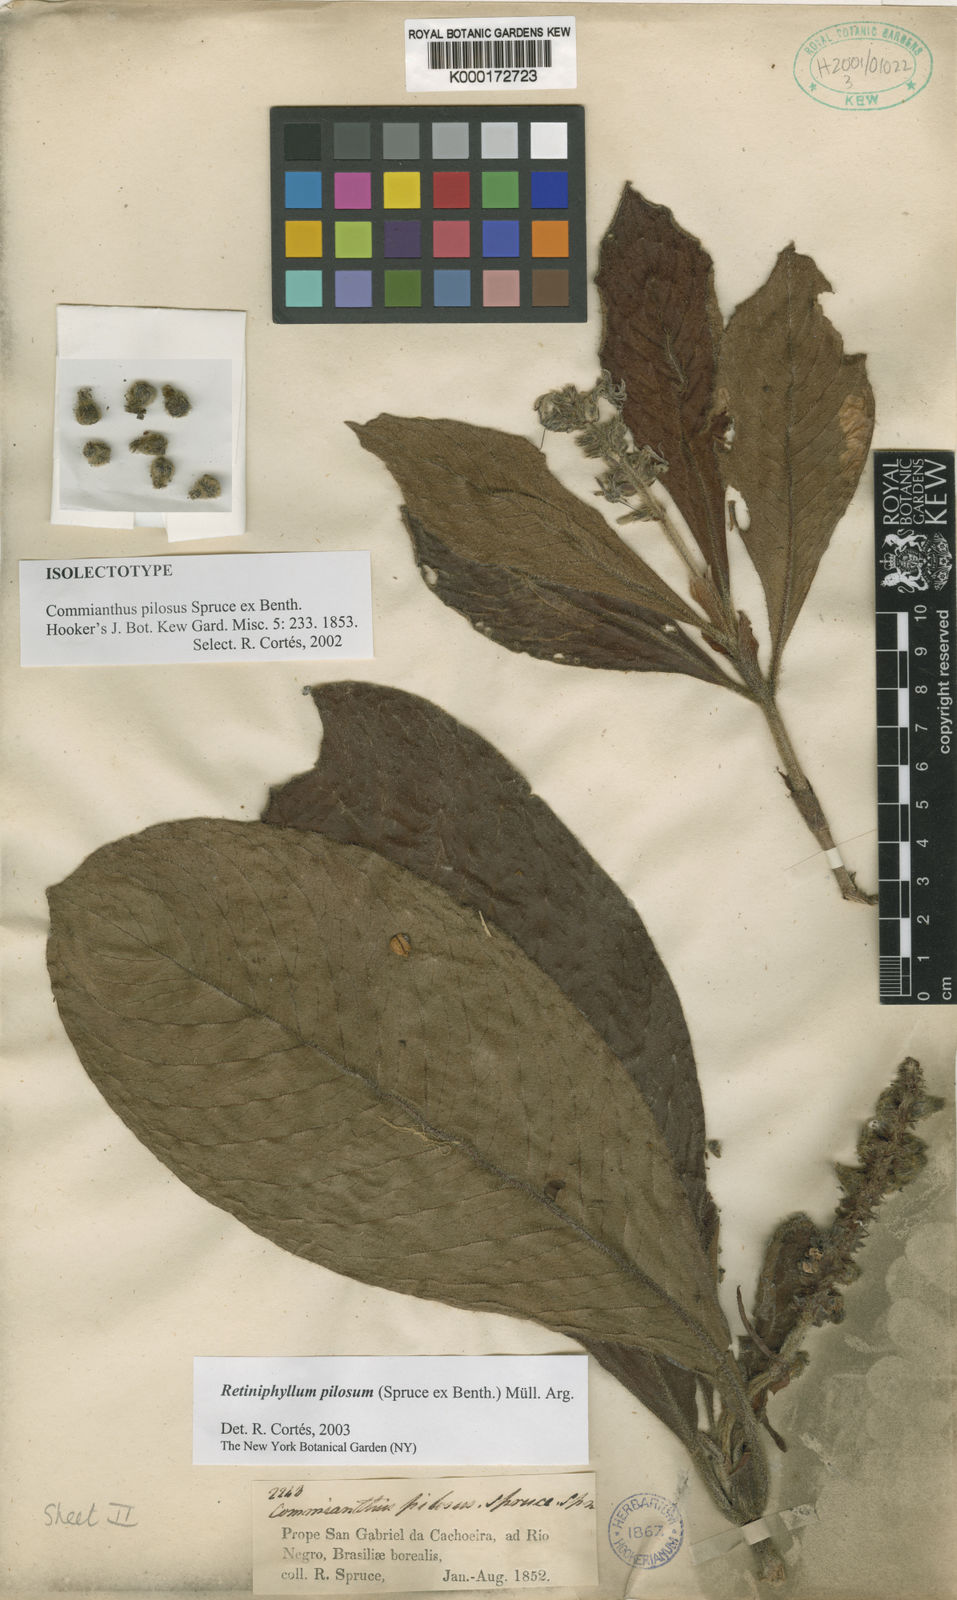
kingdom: Plantae
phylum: Tracheophyta
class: Magnoliopsida
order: Gentianales
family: Rubiaceae
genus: Retiniphyllum
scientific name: Retiniphyllum pilosum
